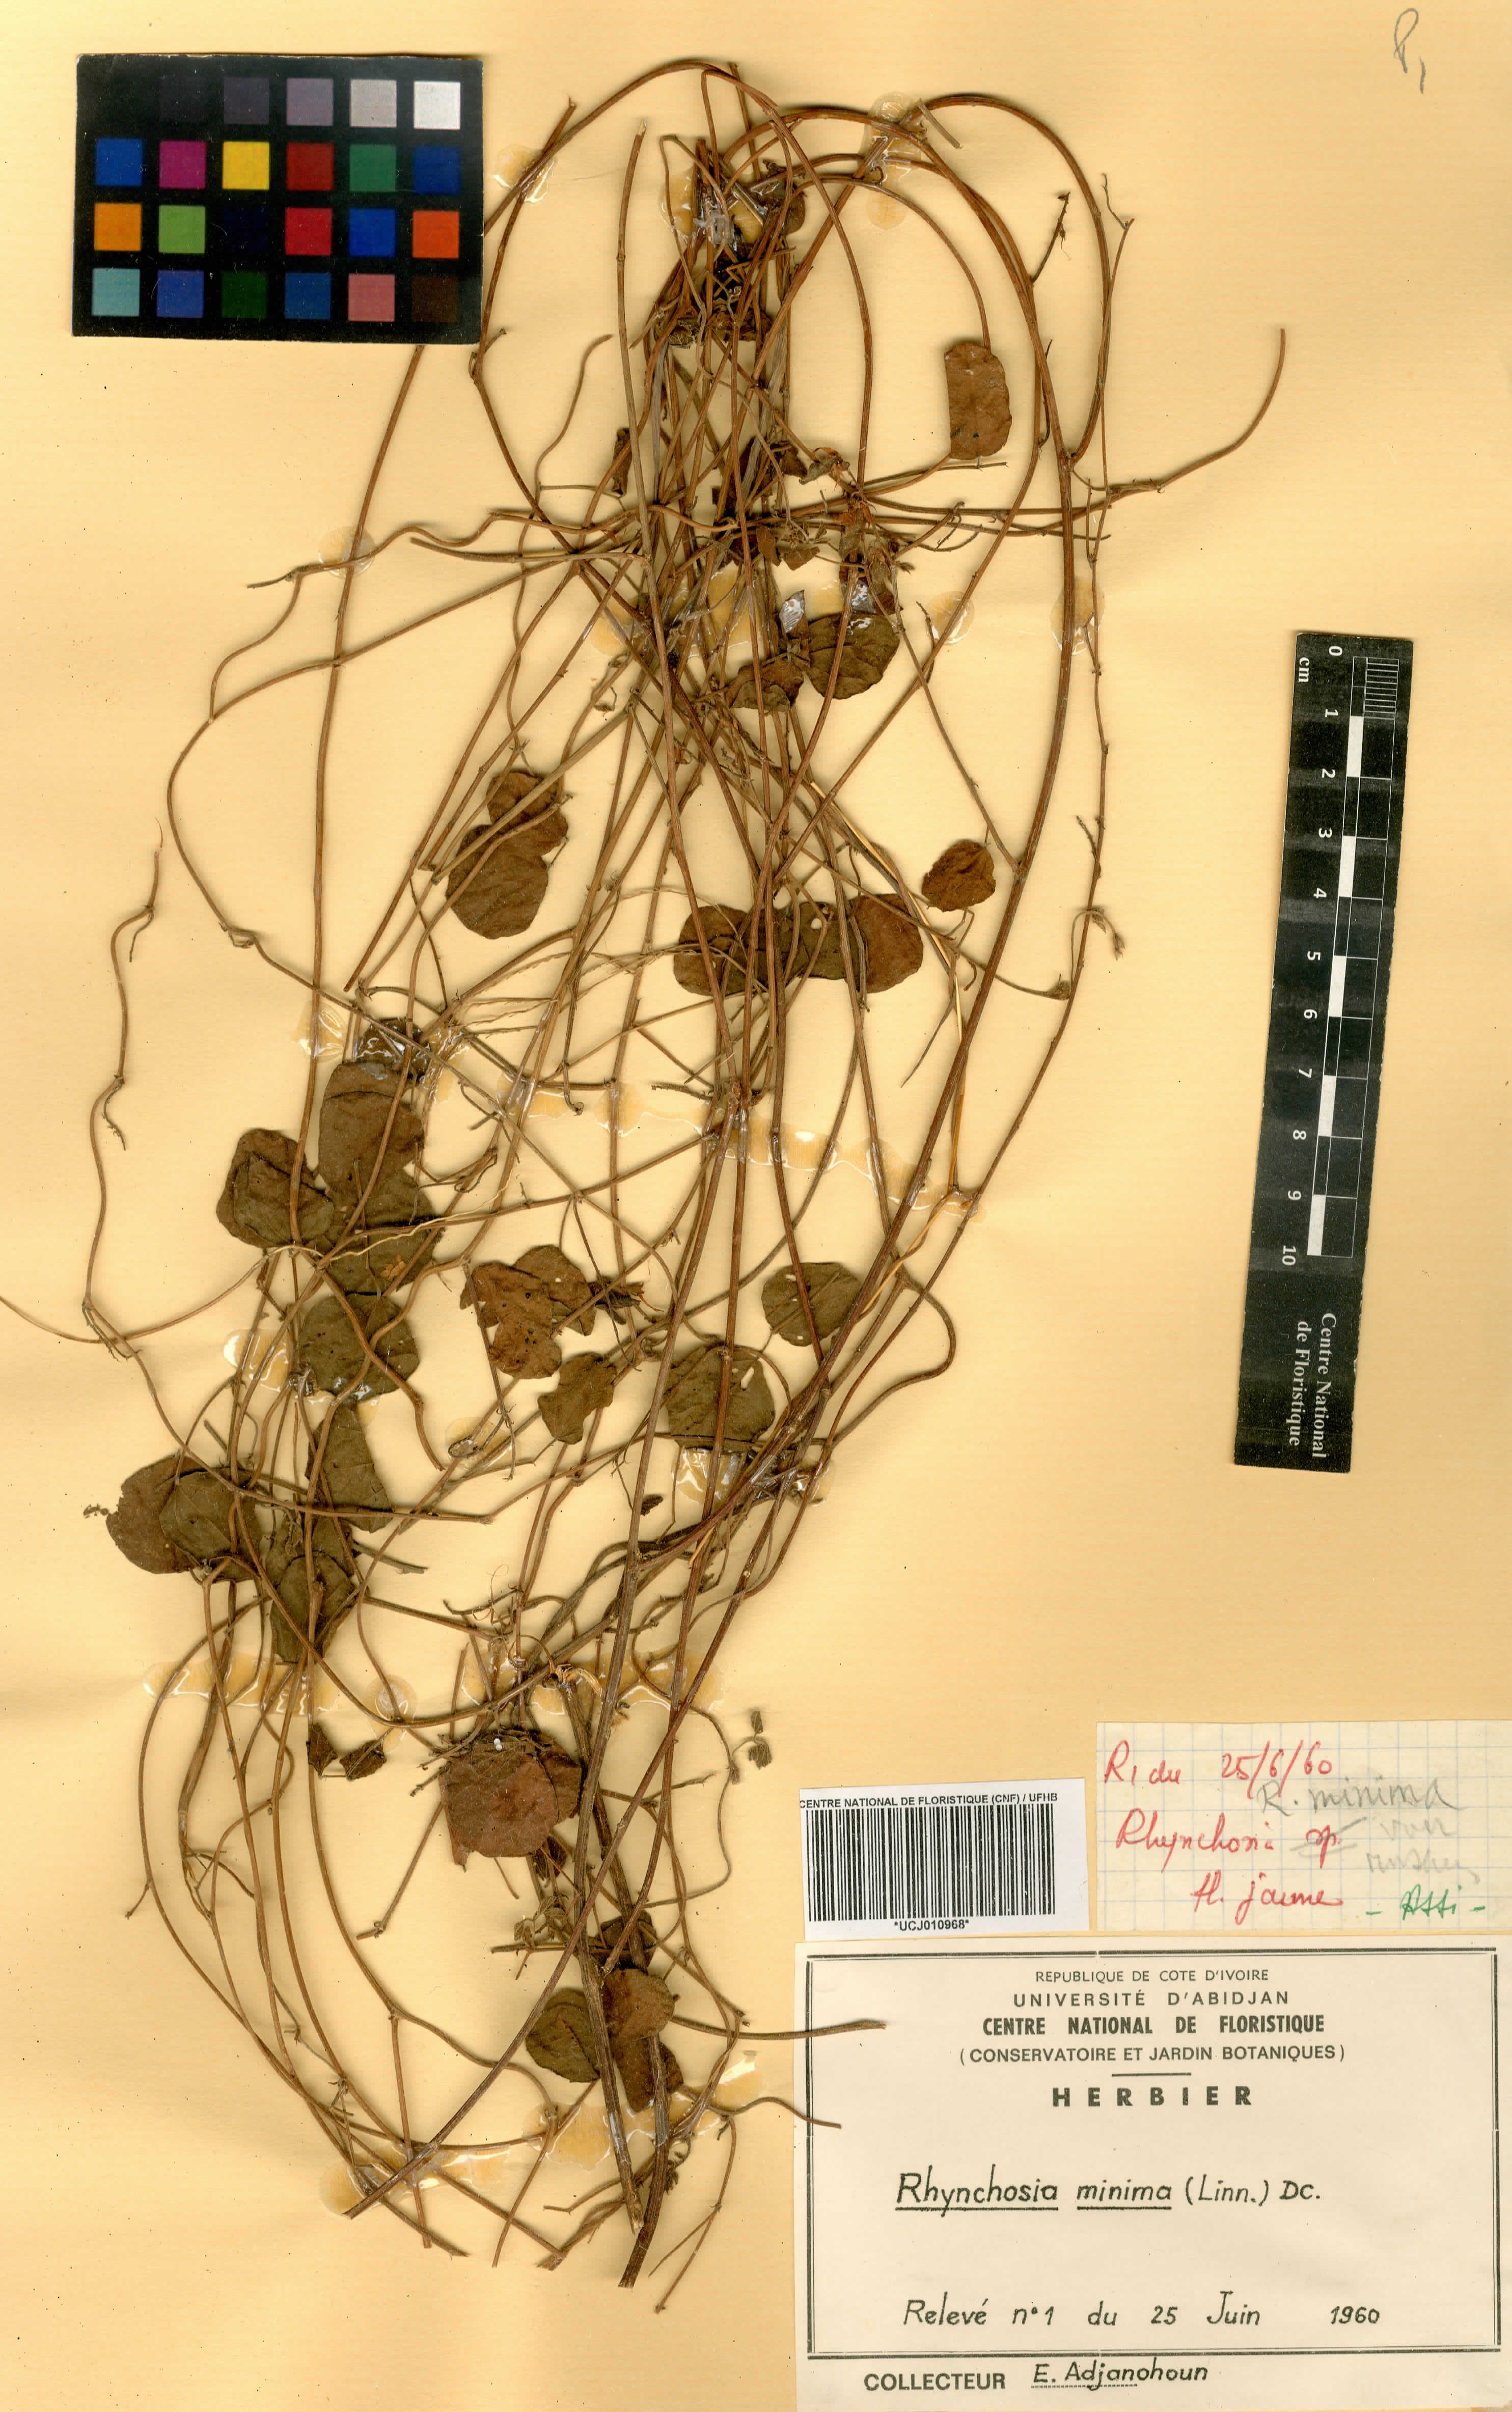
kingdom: Plantae
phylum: Tracheophyta
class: Magnoliopsida
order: Fabales
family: Fabaceae
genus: Rhynchosia
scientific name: Rhynchosia minima
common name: Least snoutbean
